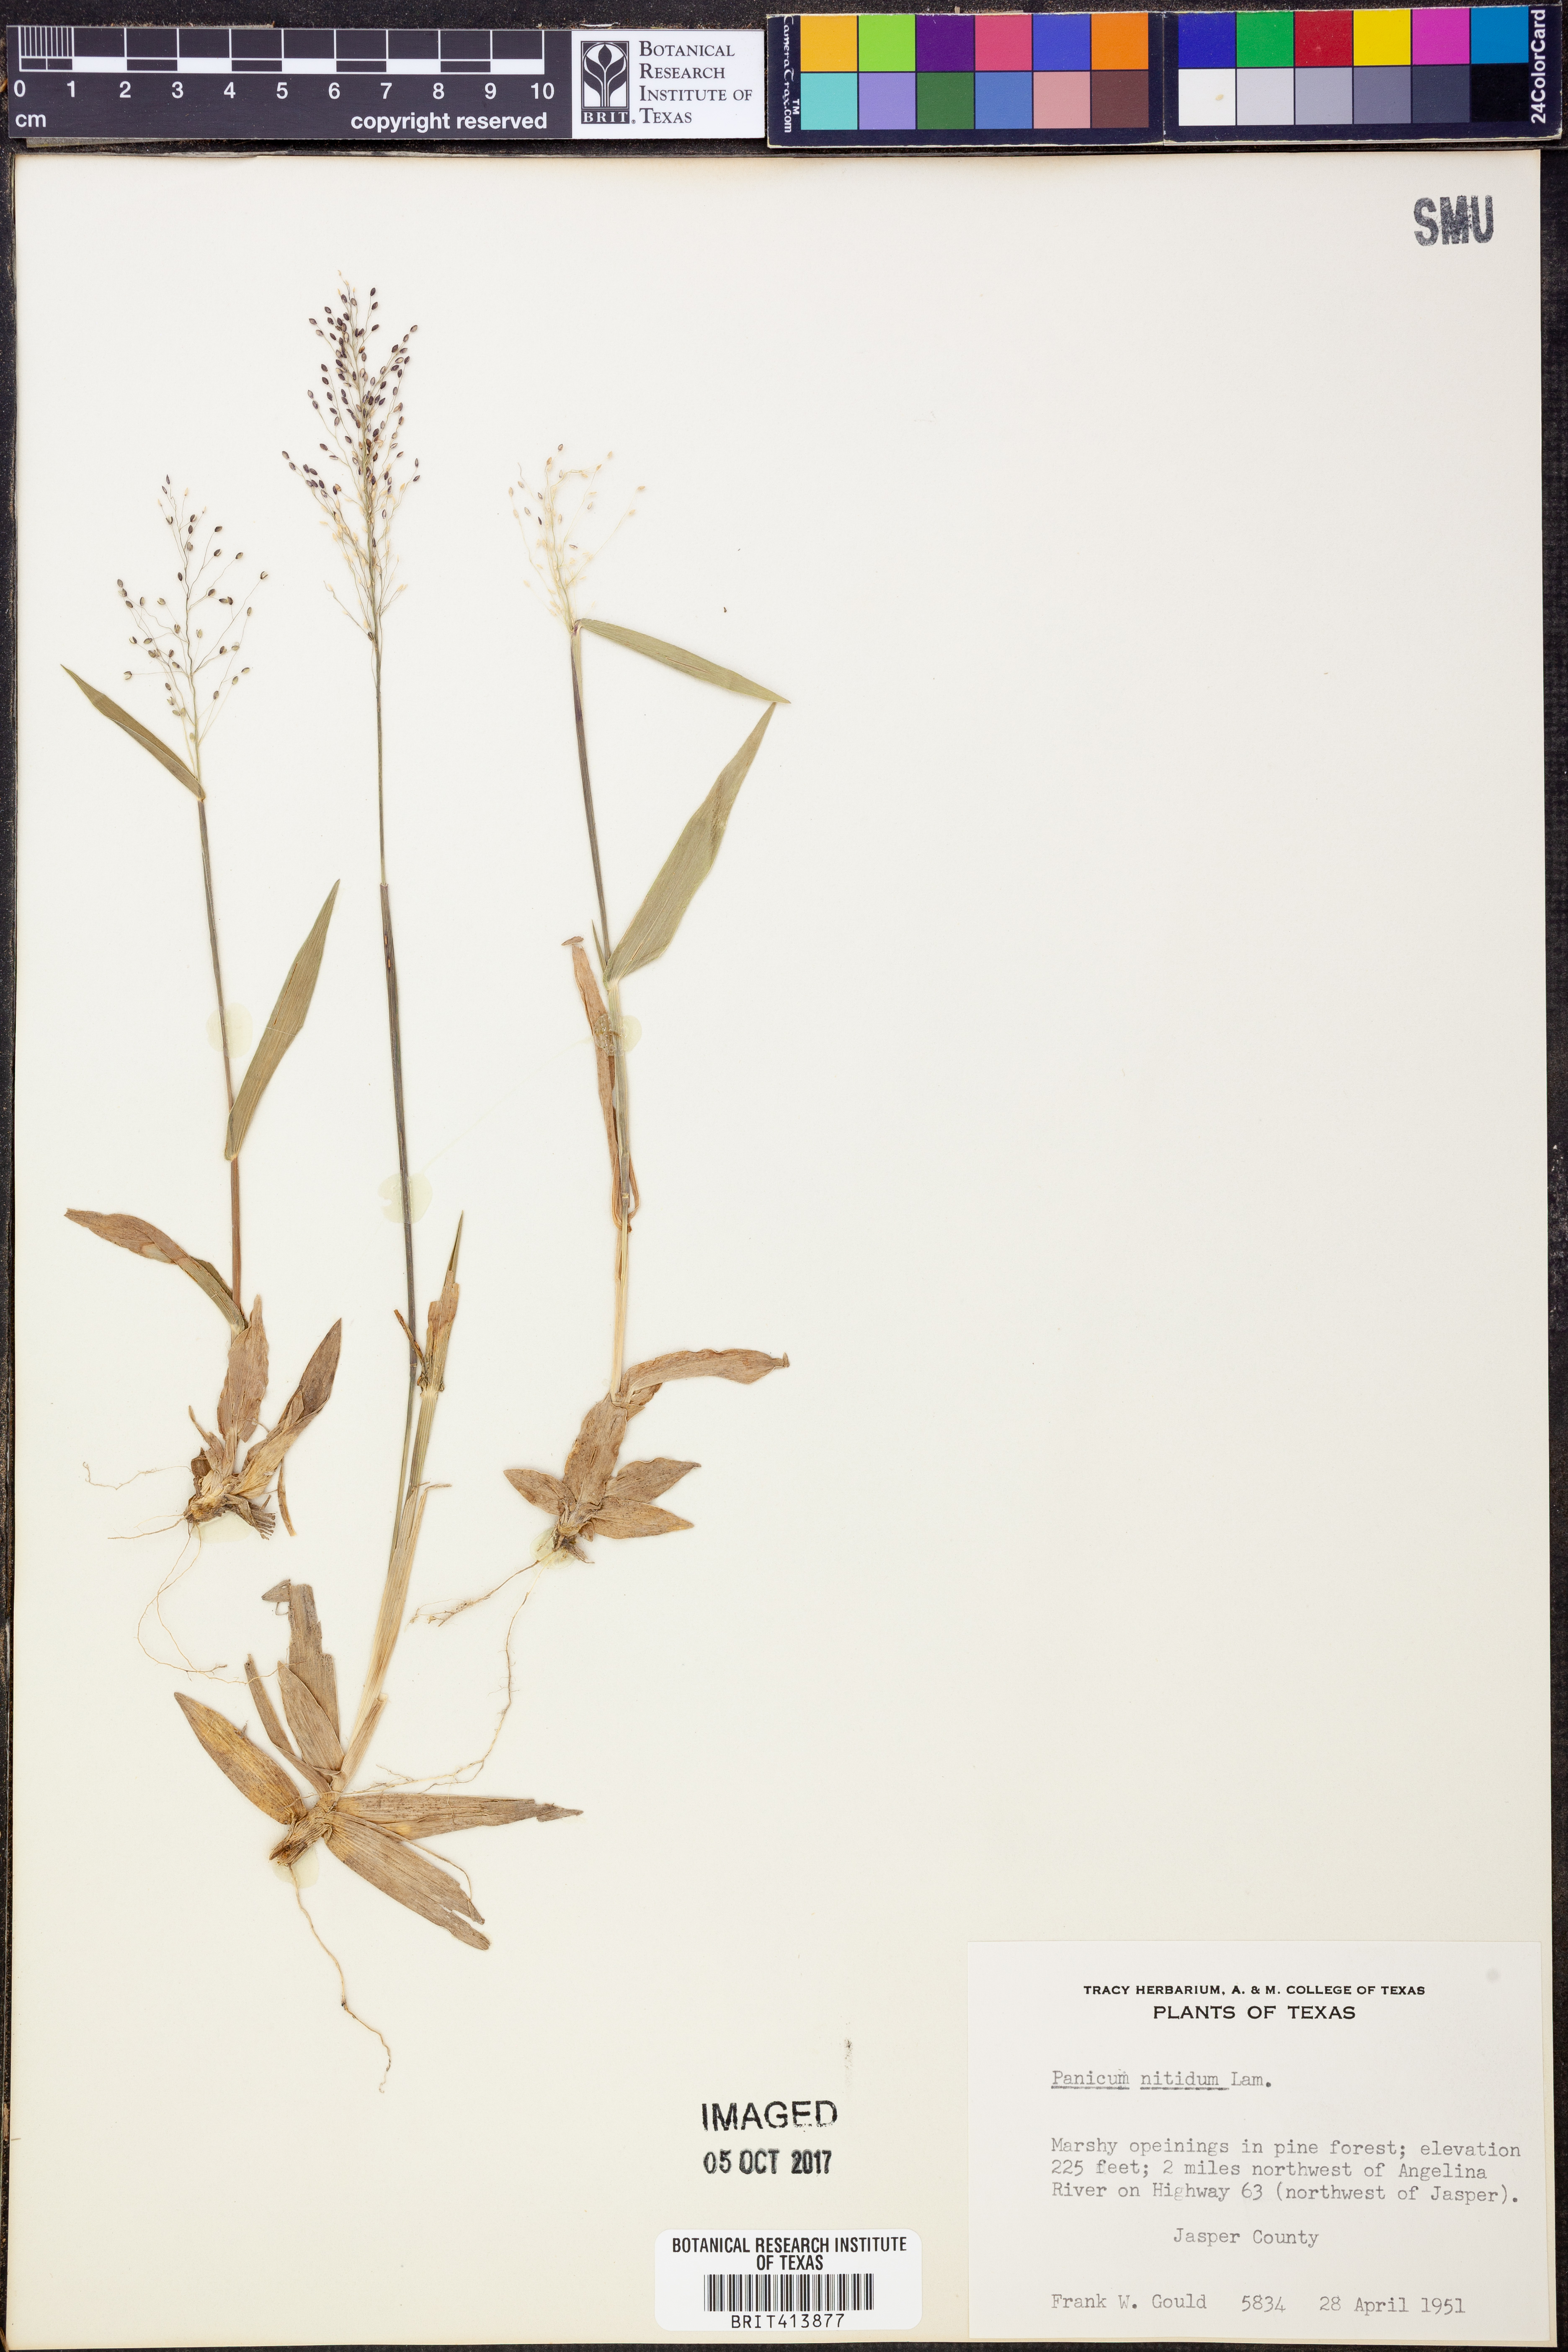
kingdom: Plantae
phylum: Tracheophyta
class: Liliopsida
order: Poales
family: Poaceae
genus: Dichanthelium
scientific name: Dichanthelium dichotomum
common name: Cypress panicgrass
